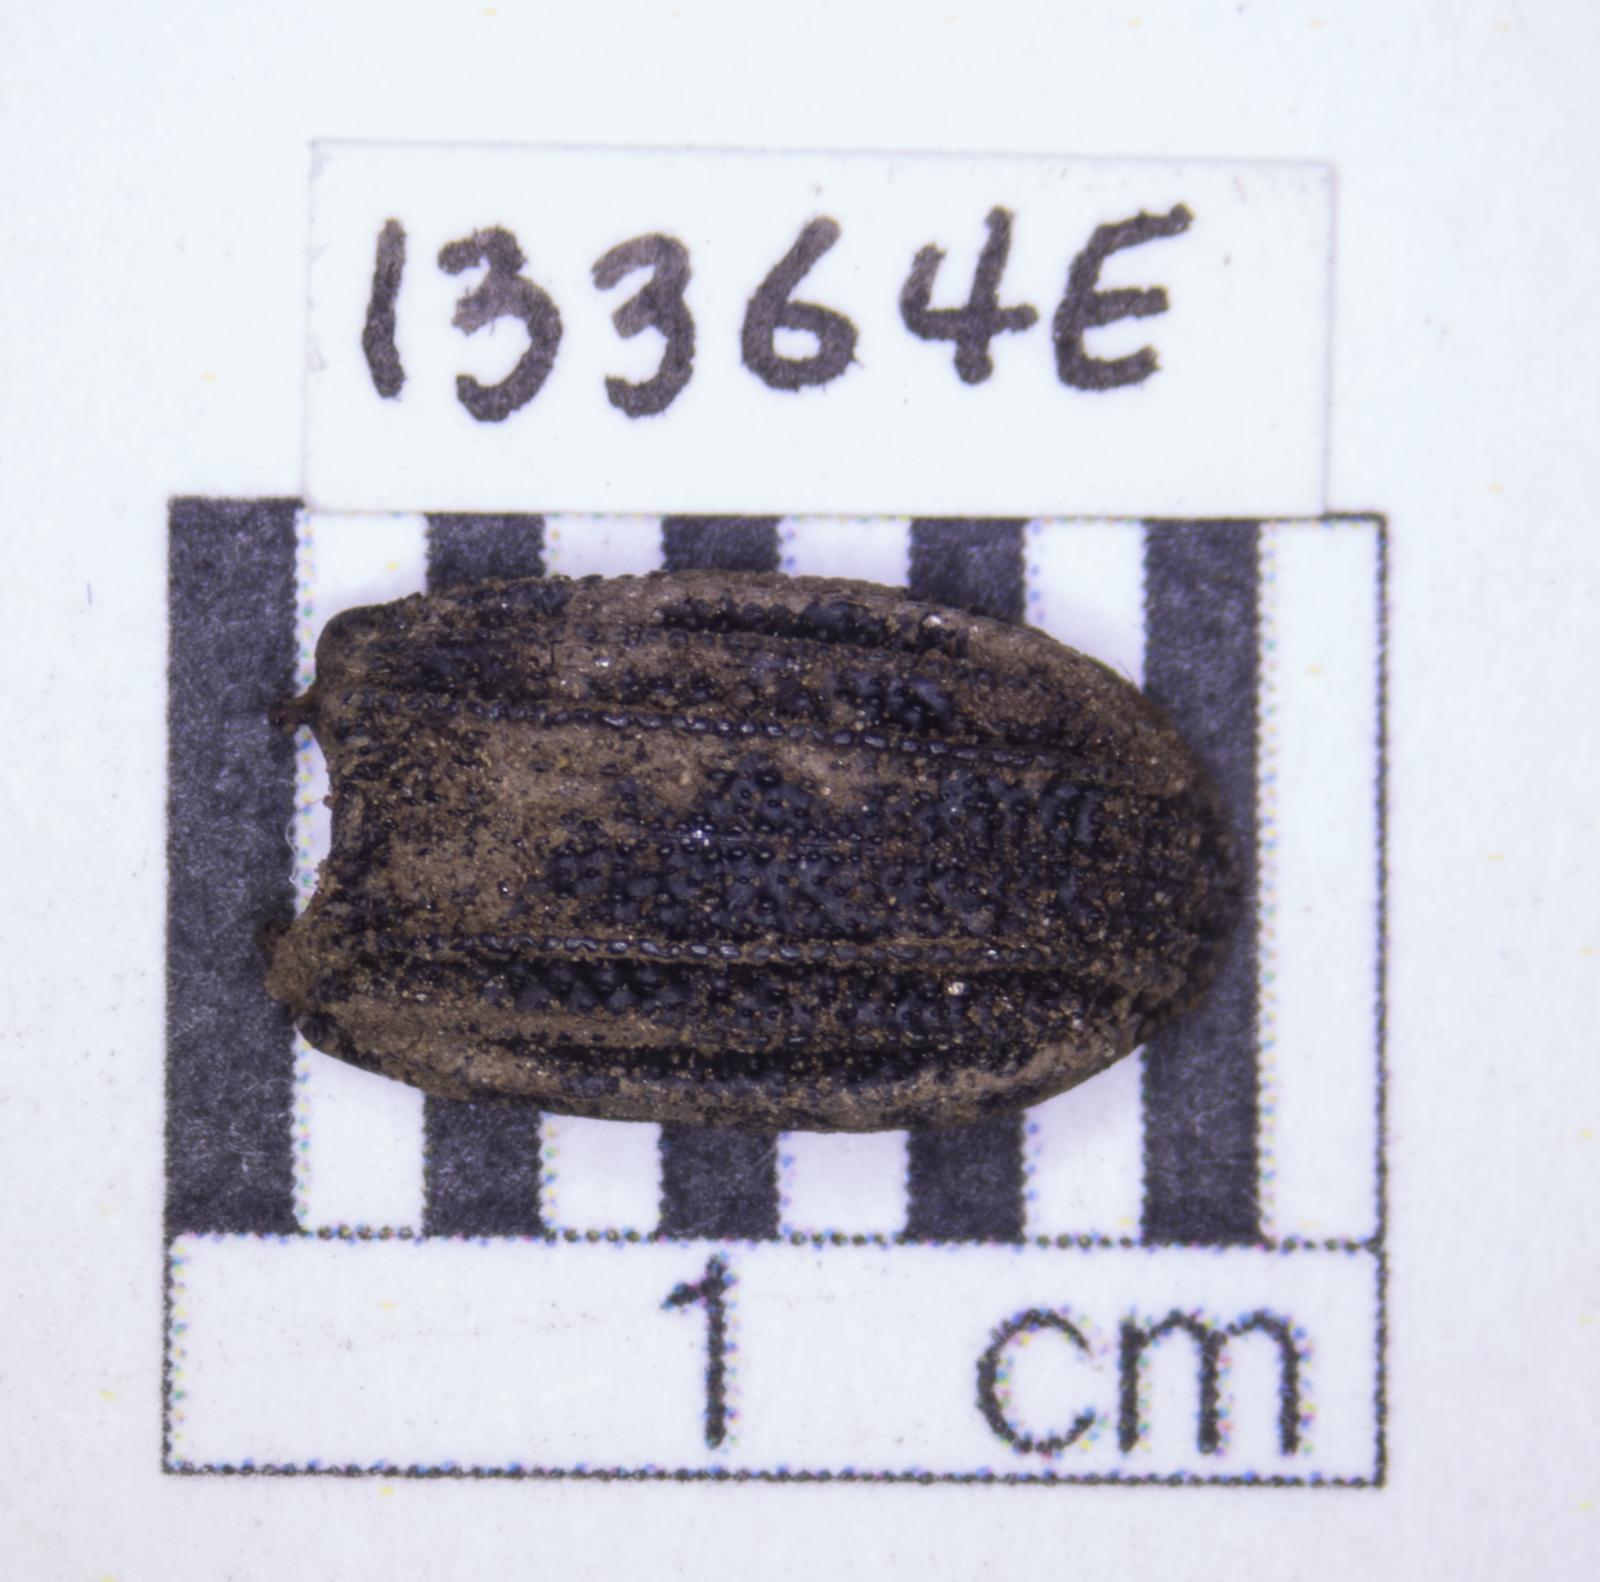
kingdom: Animalia
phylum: Arthropoda
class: Insecta
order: Coleoptera
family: Tenebrionidae
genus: Nyctoporis
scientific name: Nyctoporis carinata
